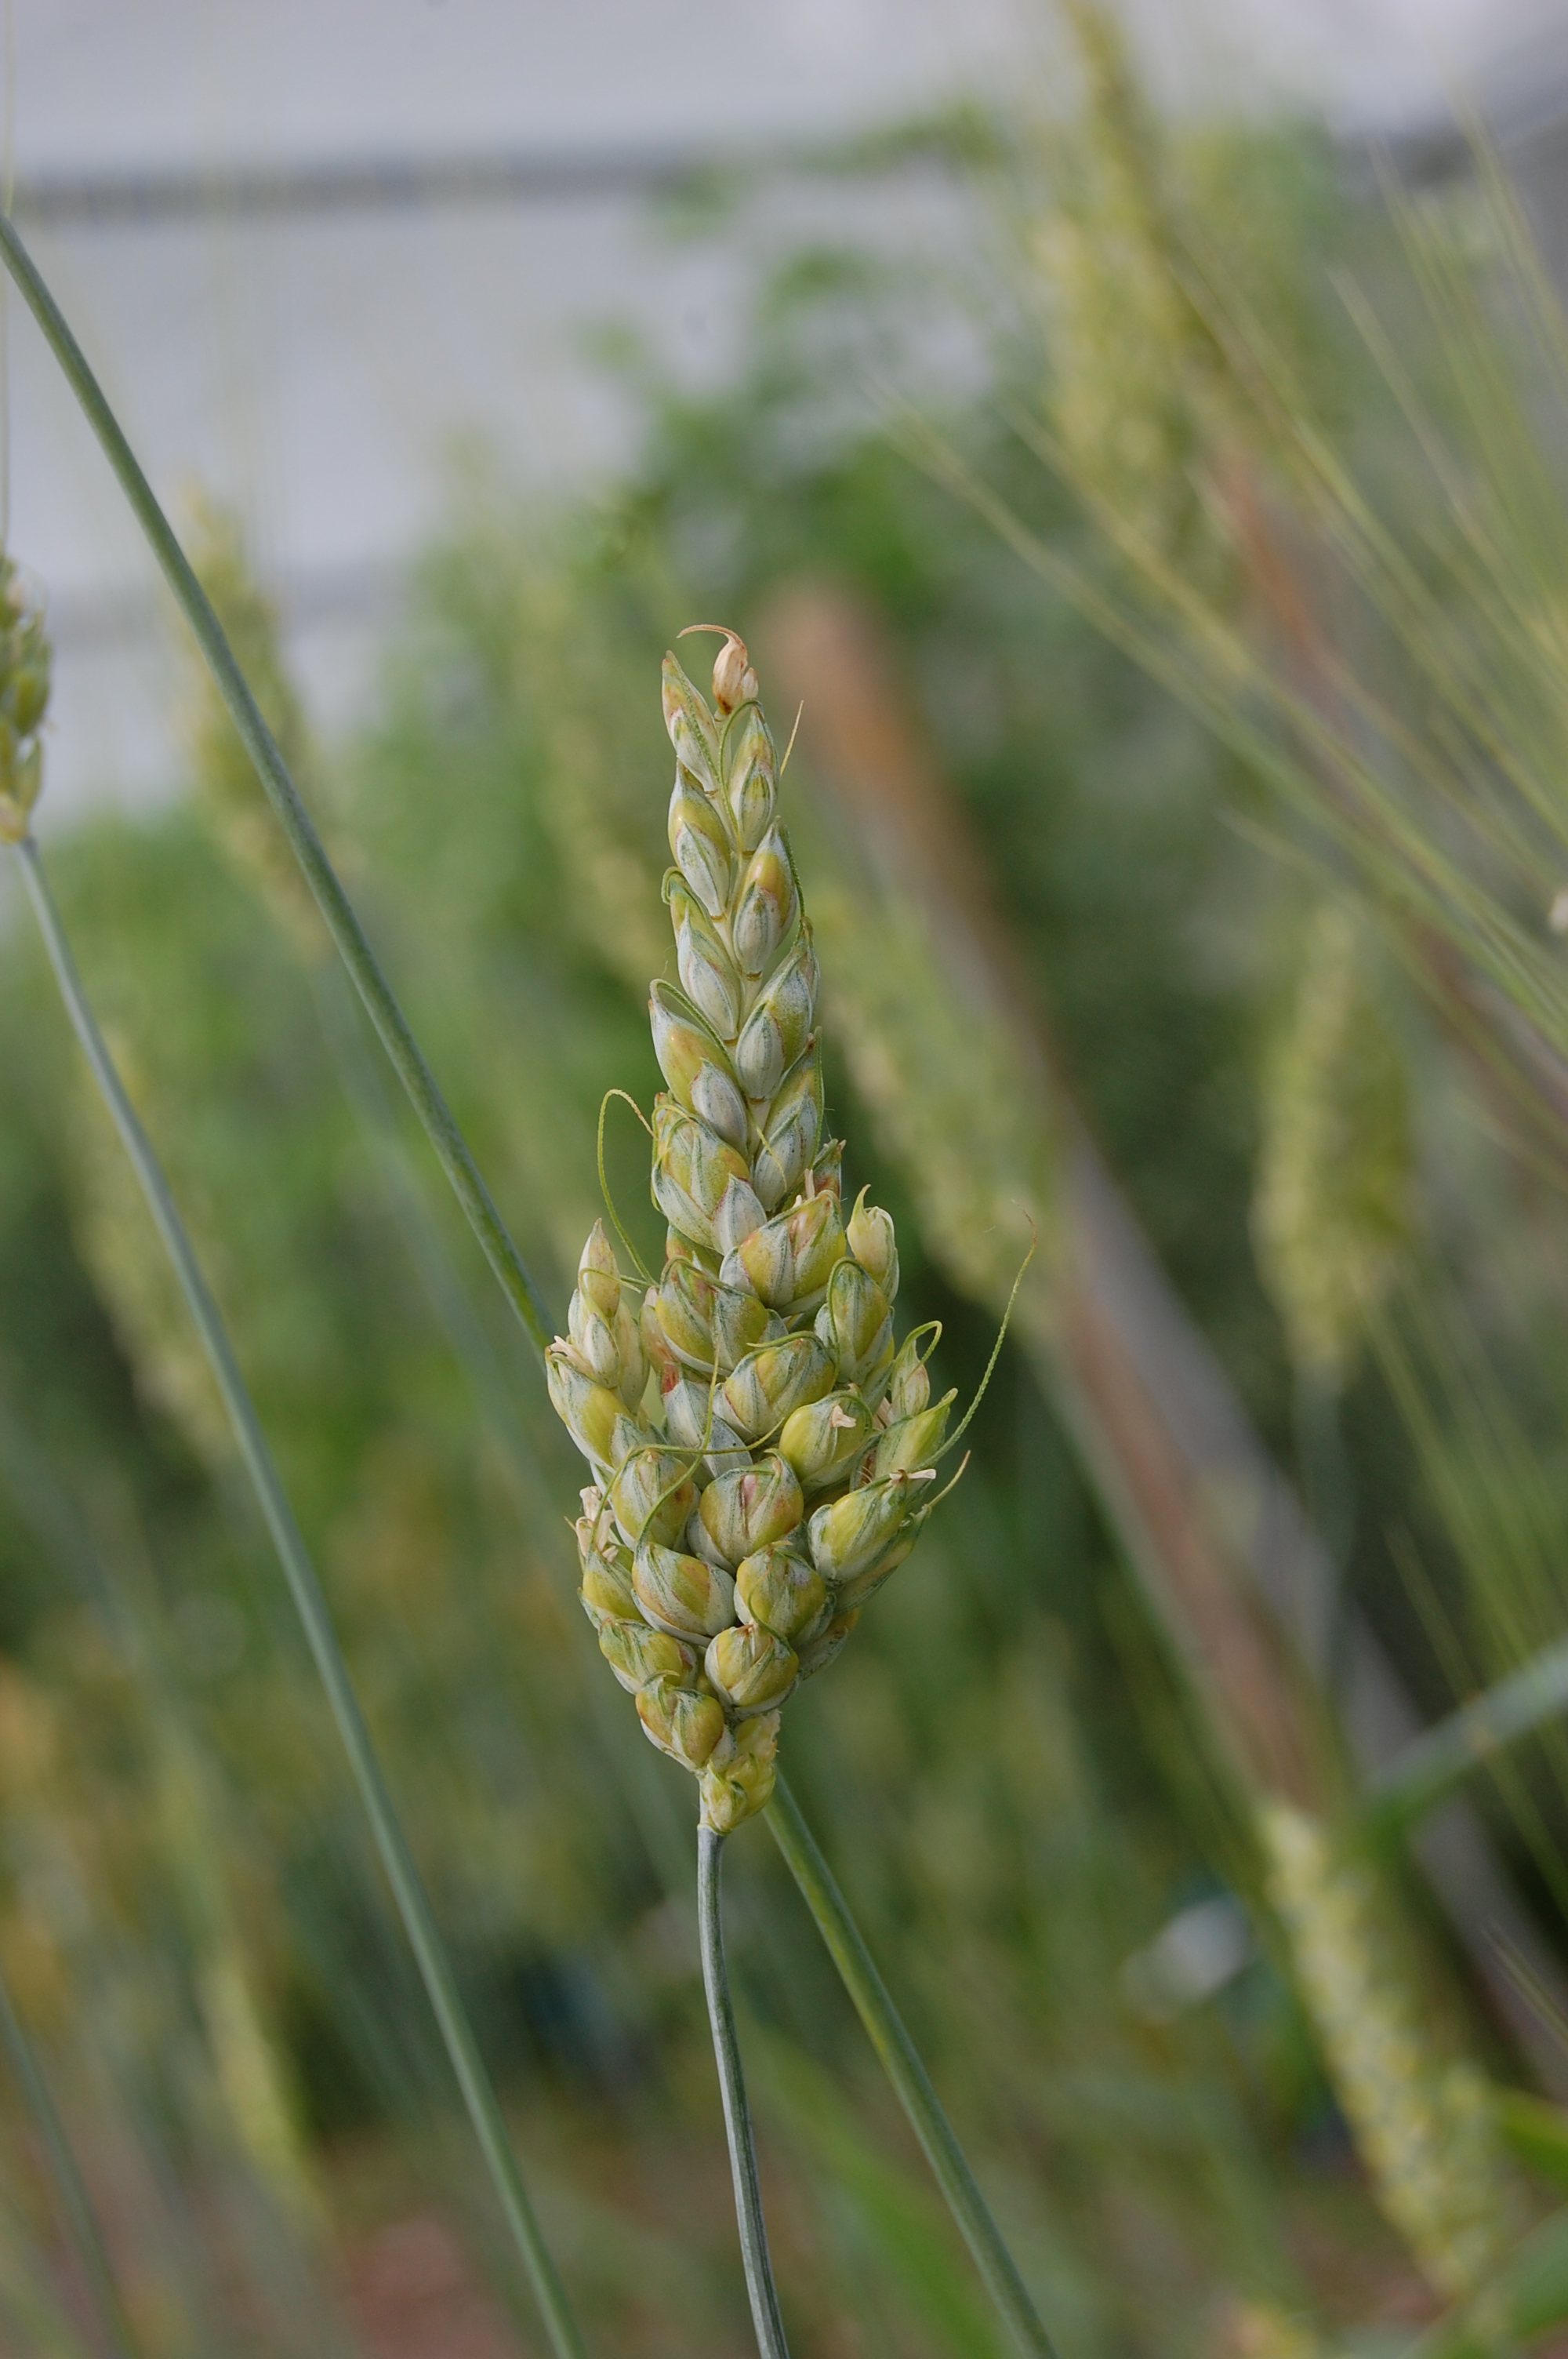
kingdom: Plantae
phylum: Tracheophyta
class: Liliopsida
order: Poales
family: Poaceae
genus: Triticum
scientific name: Triticum turgidum
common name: Rivet wheat
